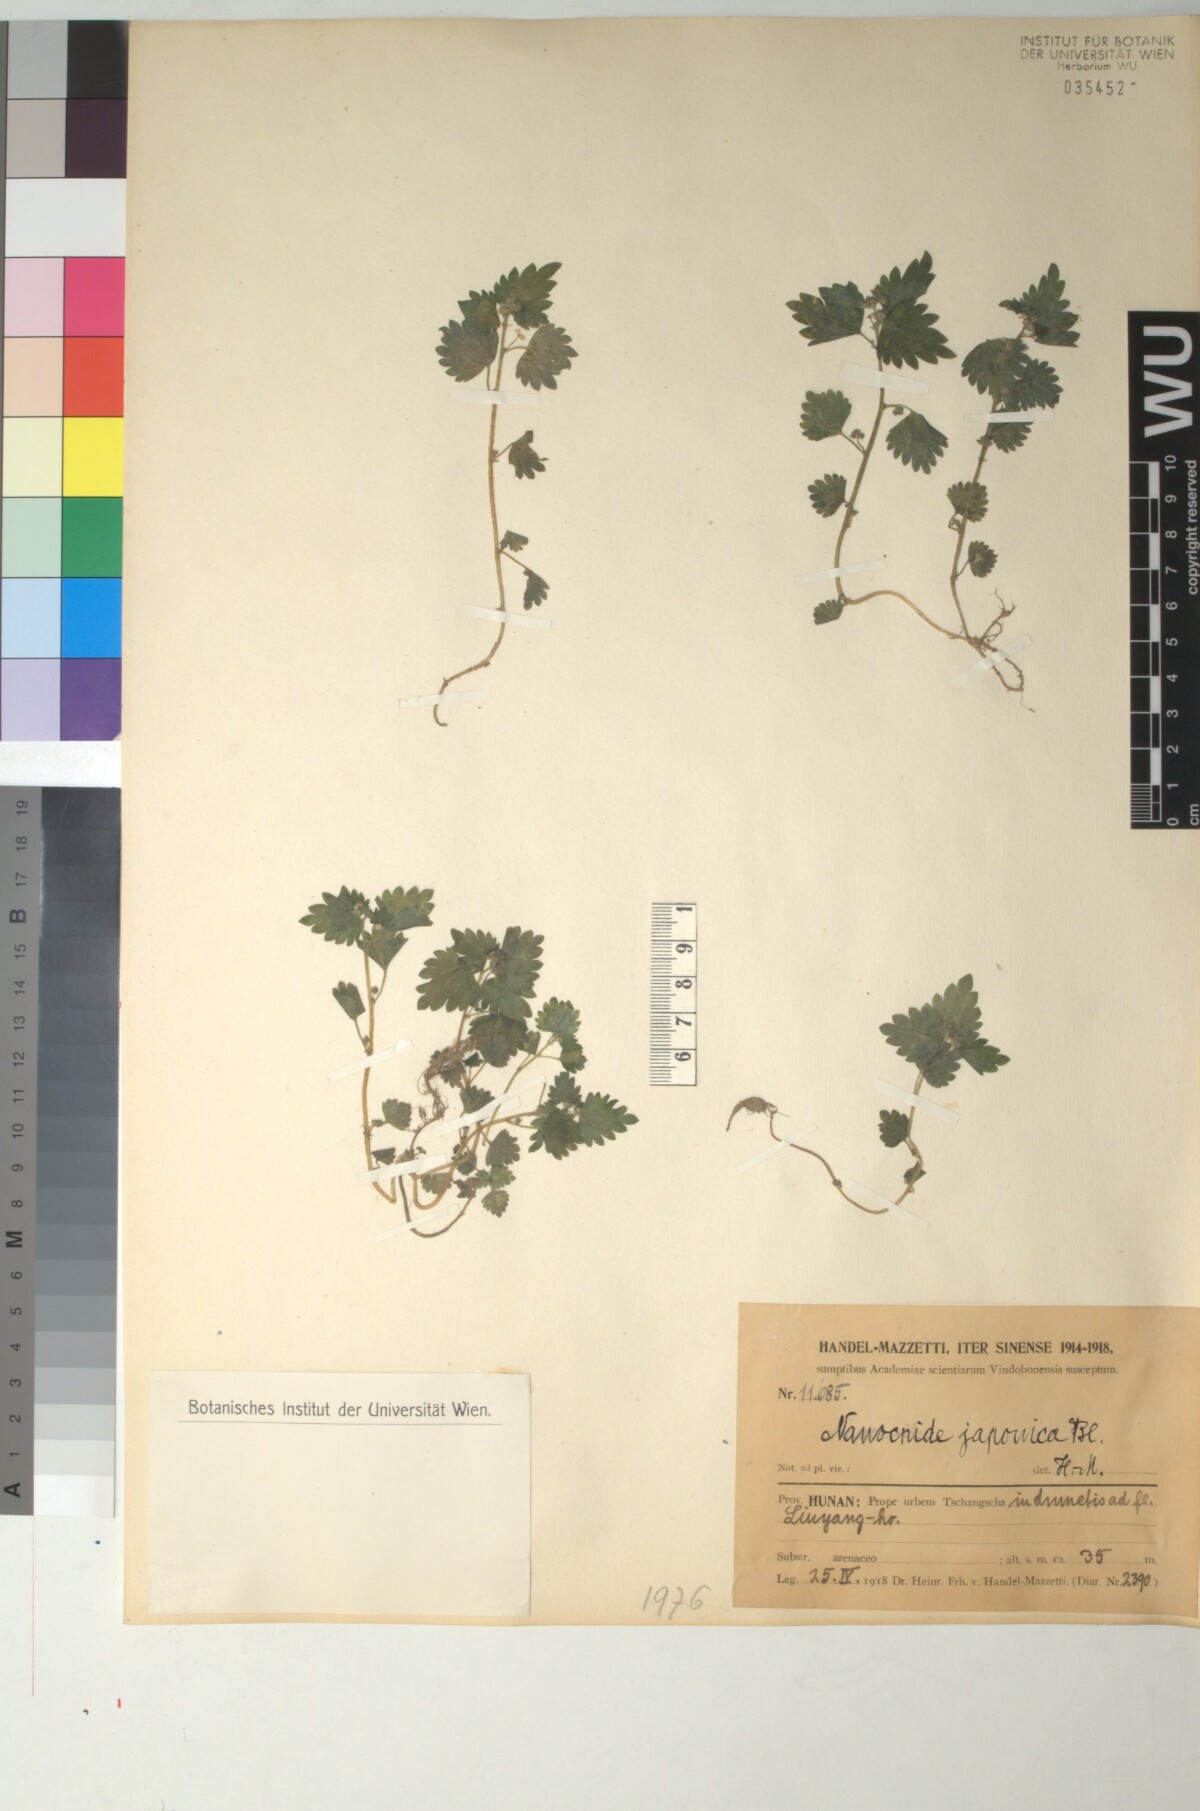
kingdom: Plantae
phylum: Tracheophyta
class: Magnoliopsida
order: Rosales
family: Urticaceae
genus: Nanocnide
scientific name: Nanocnide japonica
